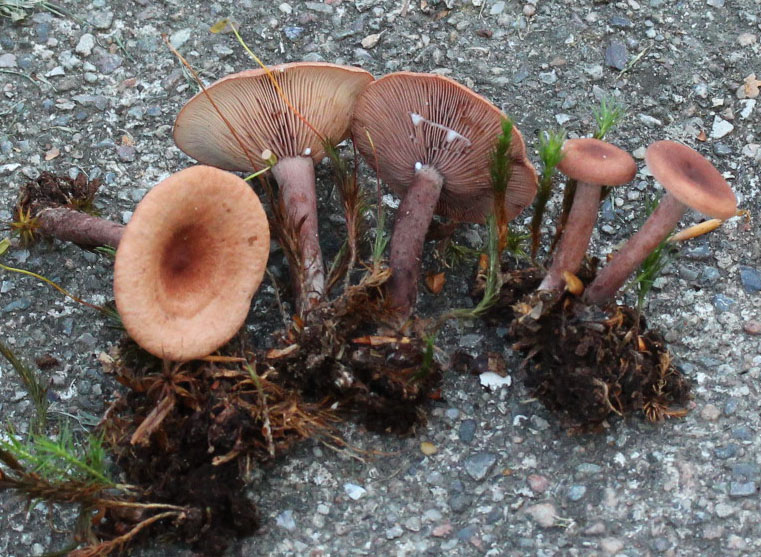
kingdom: Fungi
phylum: Basidiomycota
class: Agaricomycetes
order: Russulales
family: Russulaceae
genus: Lactarius
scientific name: Lactarius camphoratus
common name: kamfer-mælkehat
